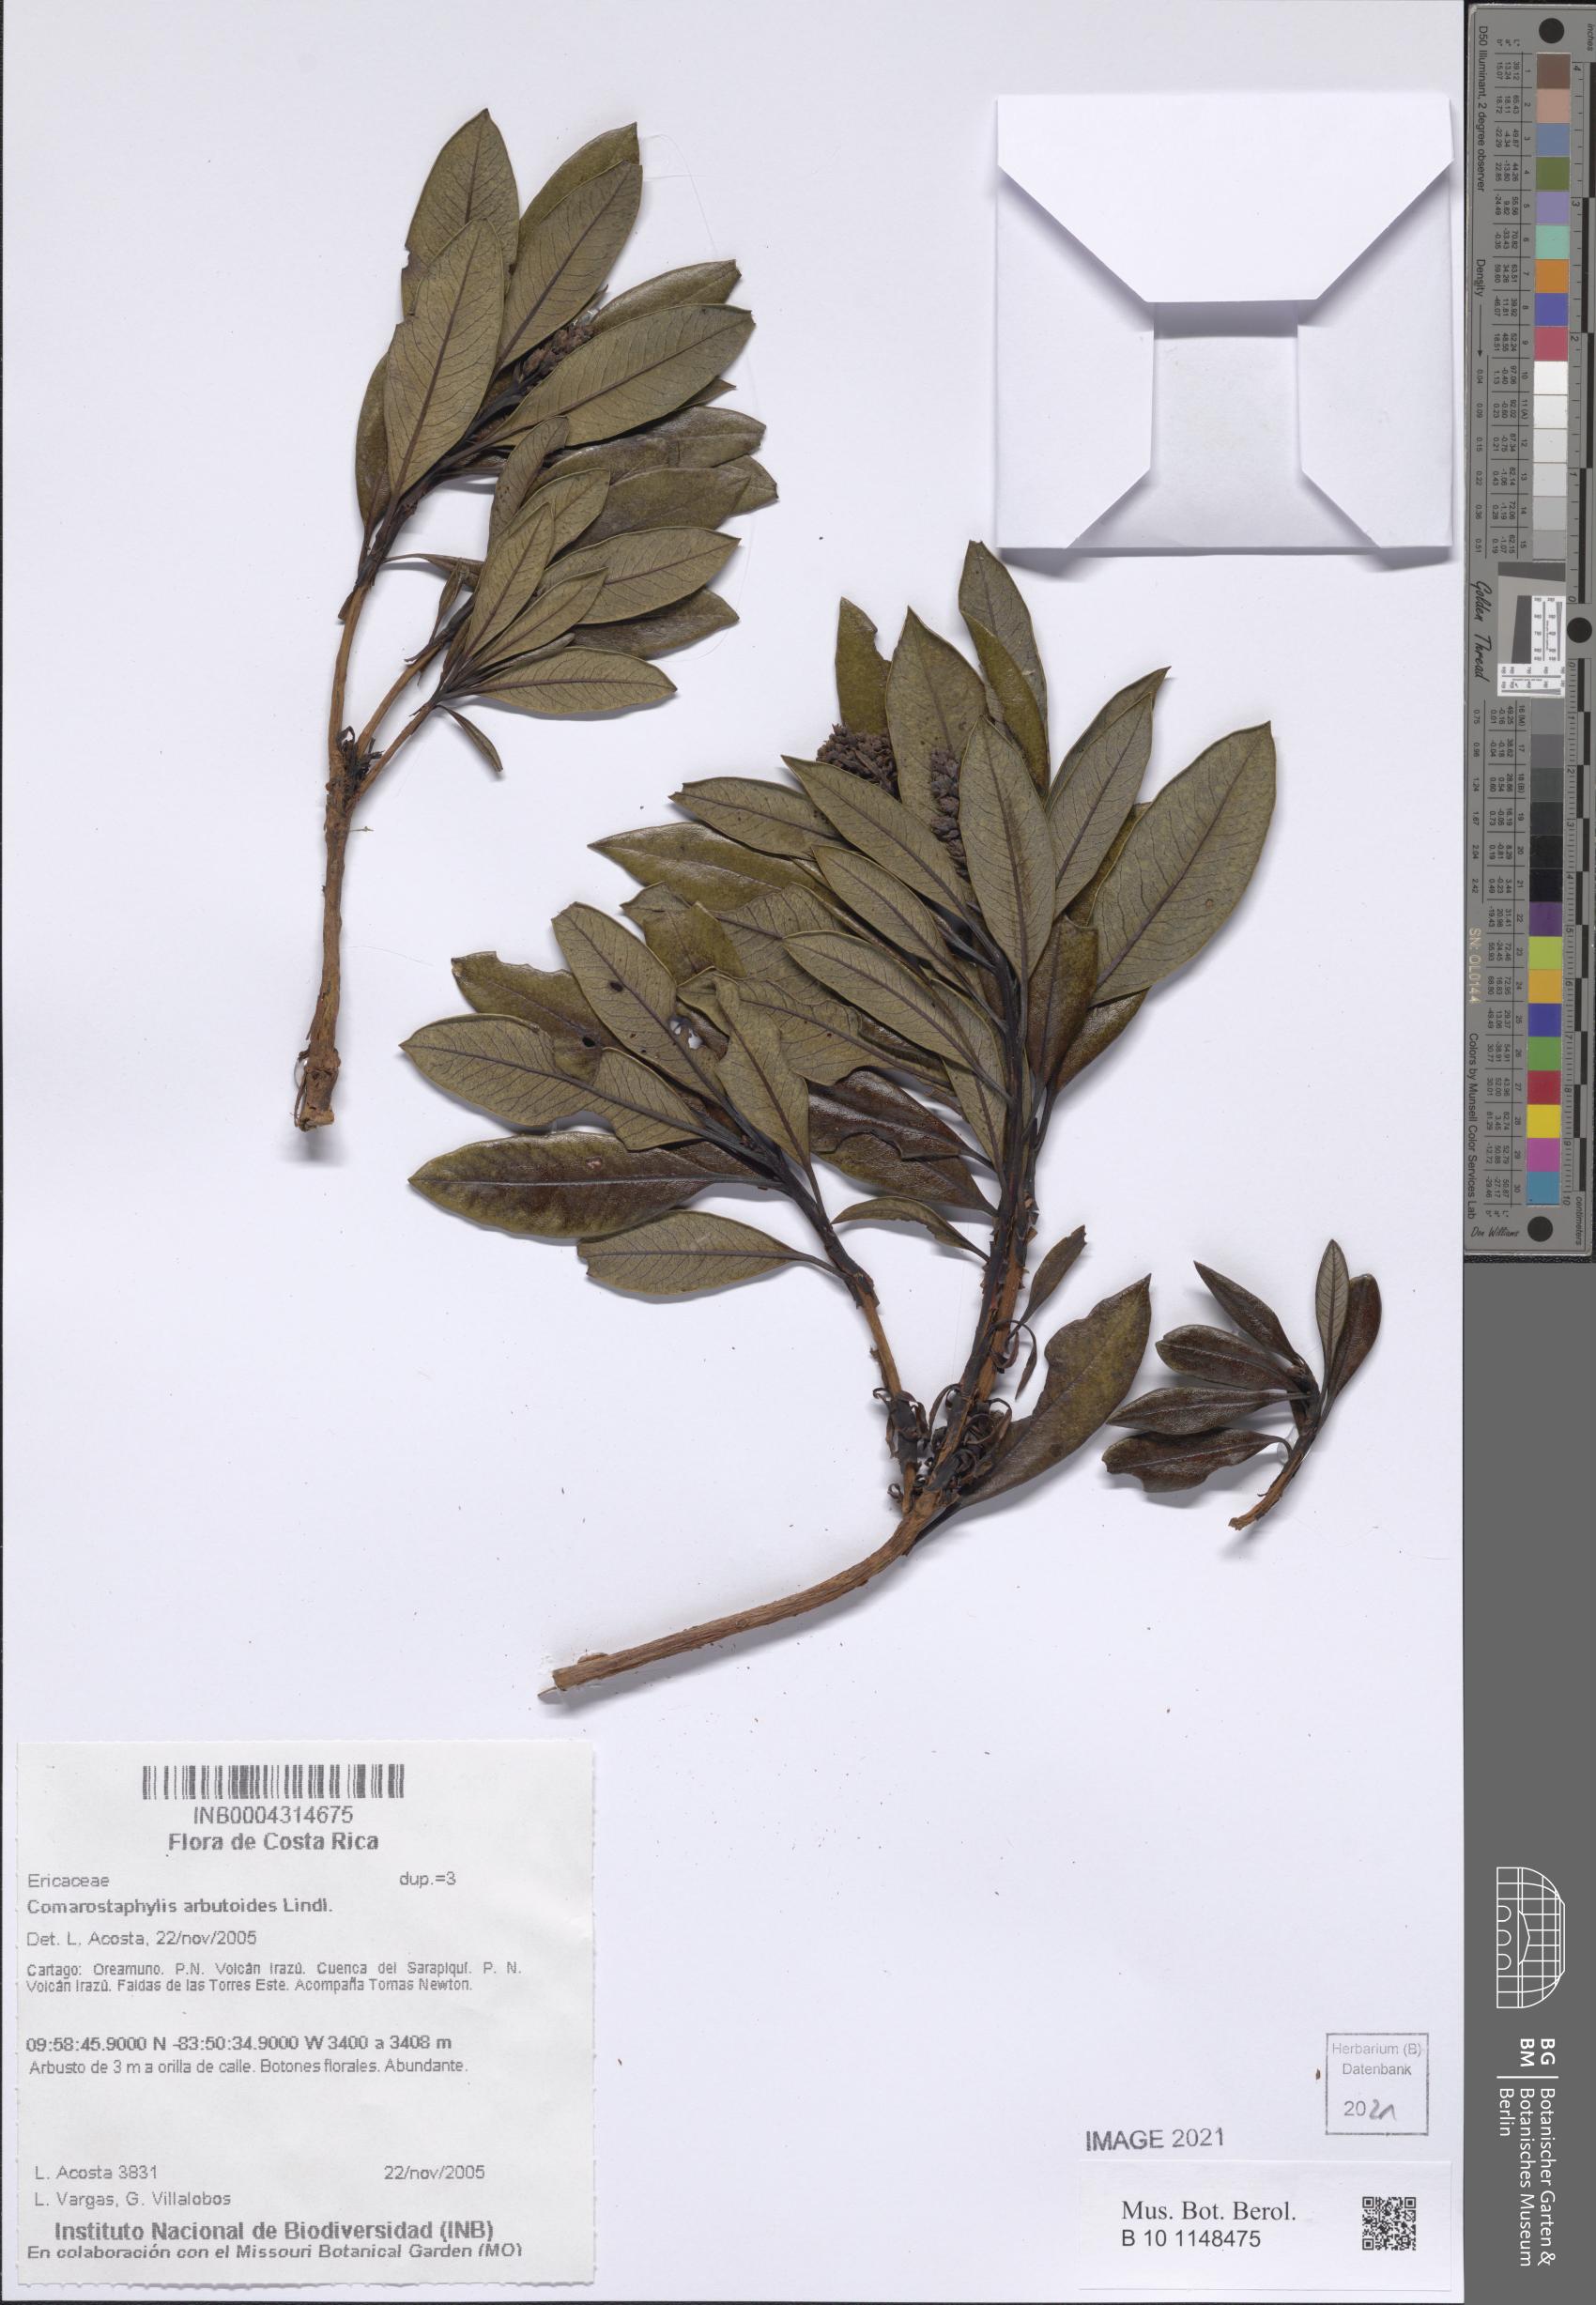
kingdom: Plantae
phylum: Tracheophyta
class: Magnoliopsida
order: Ericales
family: Ericaceae
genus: Comarostaphylis
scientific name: Comarostaphylis arbutoides
